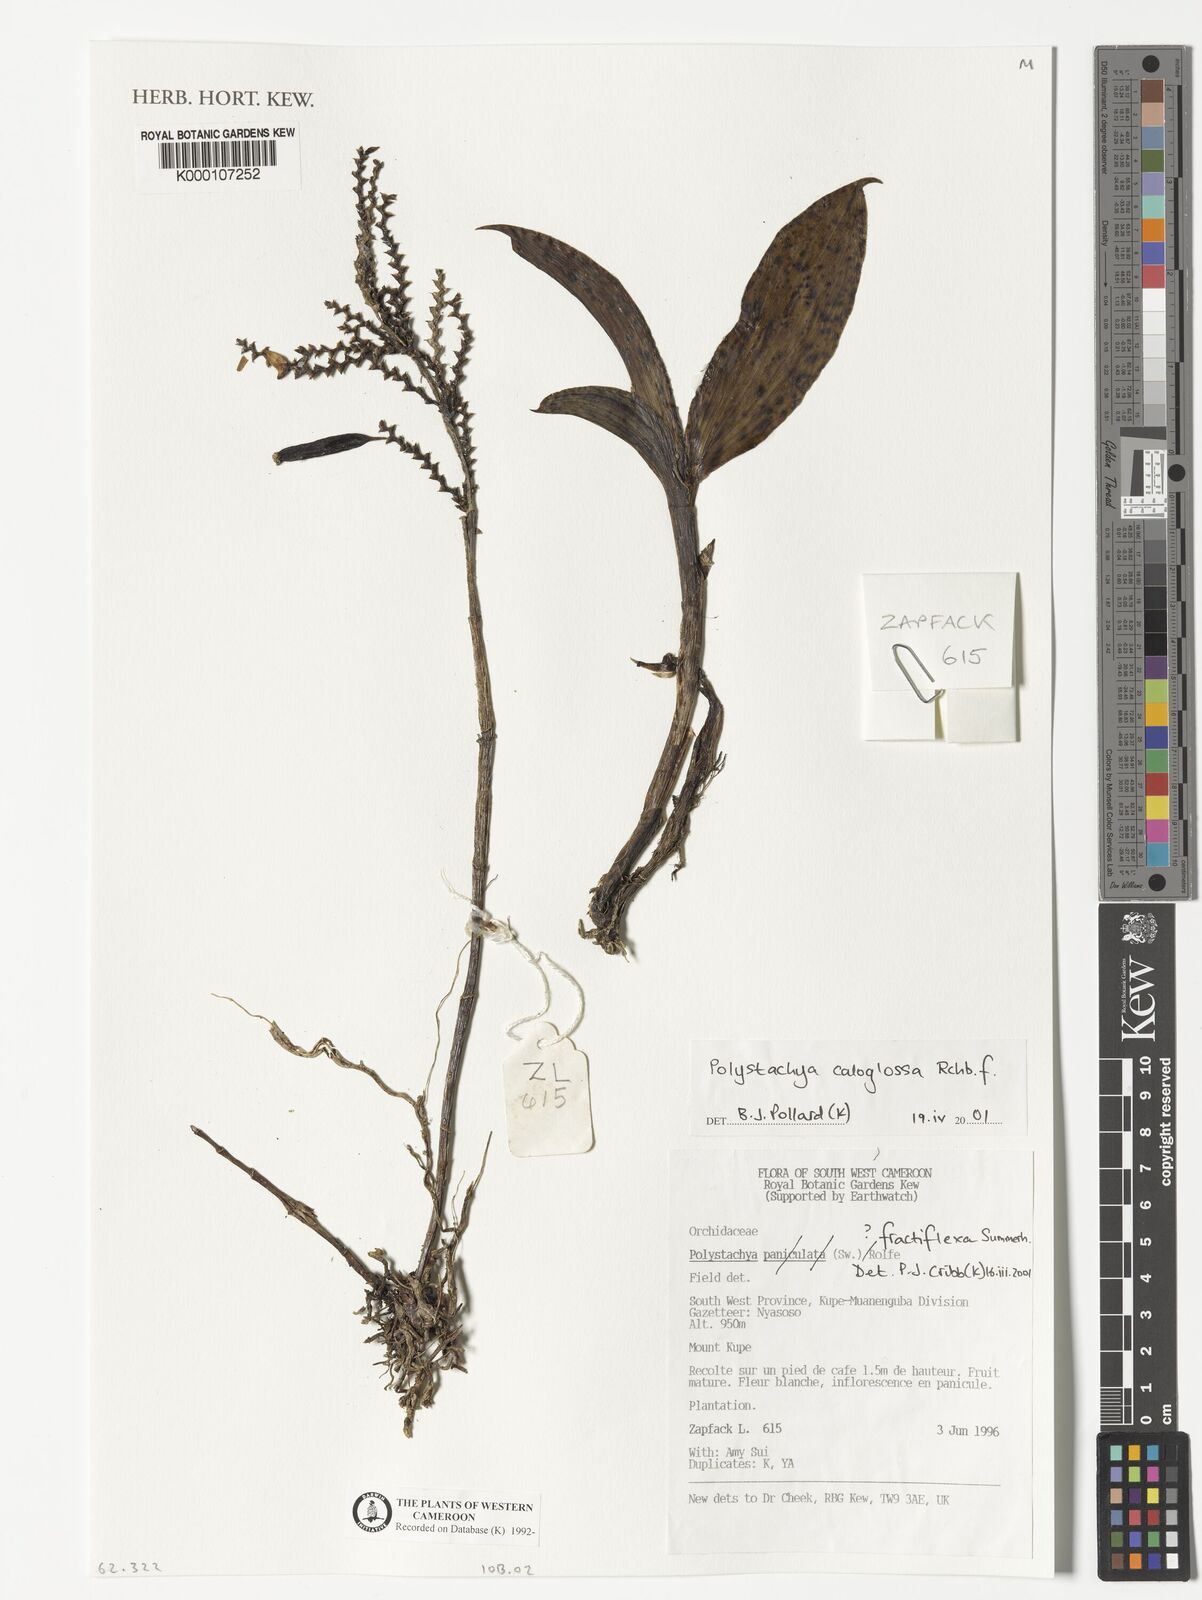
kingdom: Plantae
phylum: Tracheophyta
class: Liliopsida
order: Asparagales
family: Orchidaceae
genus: Polystachya
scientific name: Polystachya caloglossa
